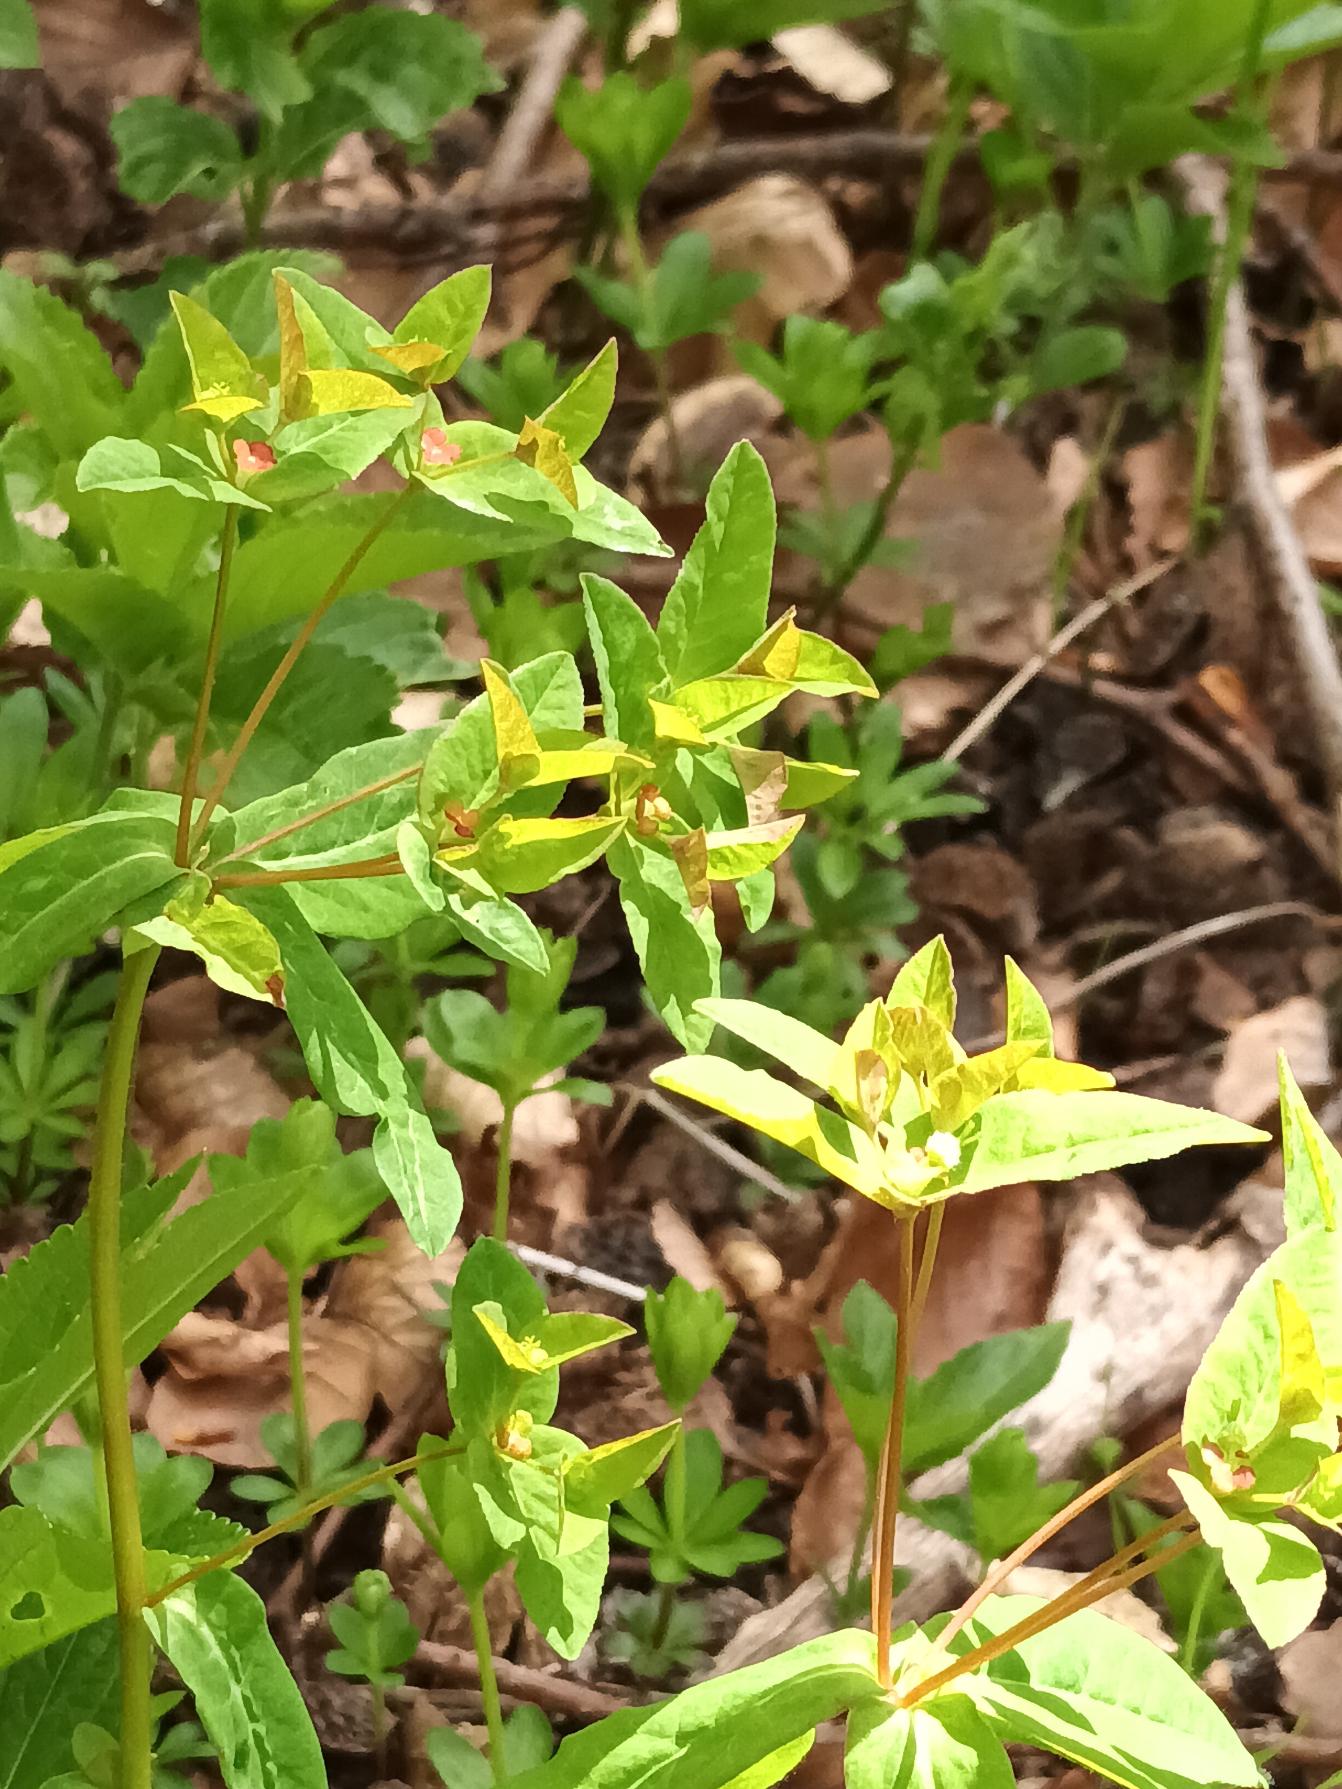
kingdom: Plantae
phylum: Tracheophyta
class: Magnoliopsida
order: Malpighiales
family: Euphorbiaceae
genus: Euphorbia
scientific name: Euphorbia dulcis
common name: Knold-vortemælk
